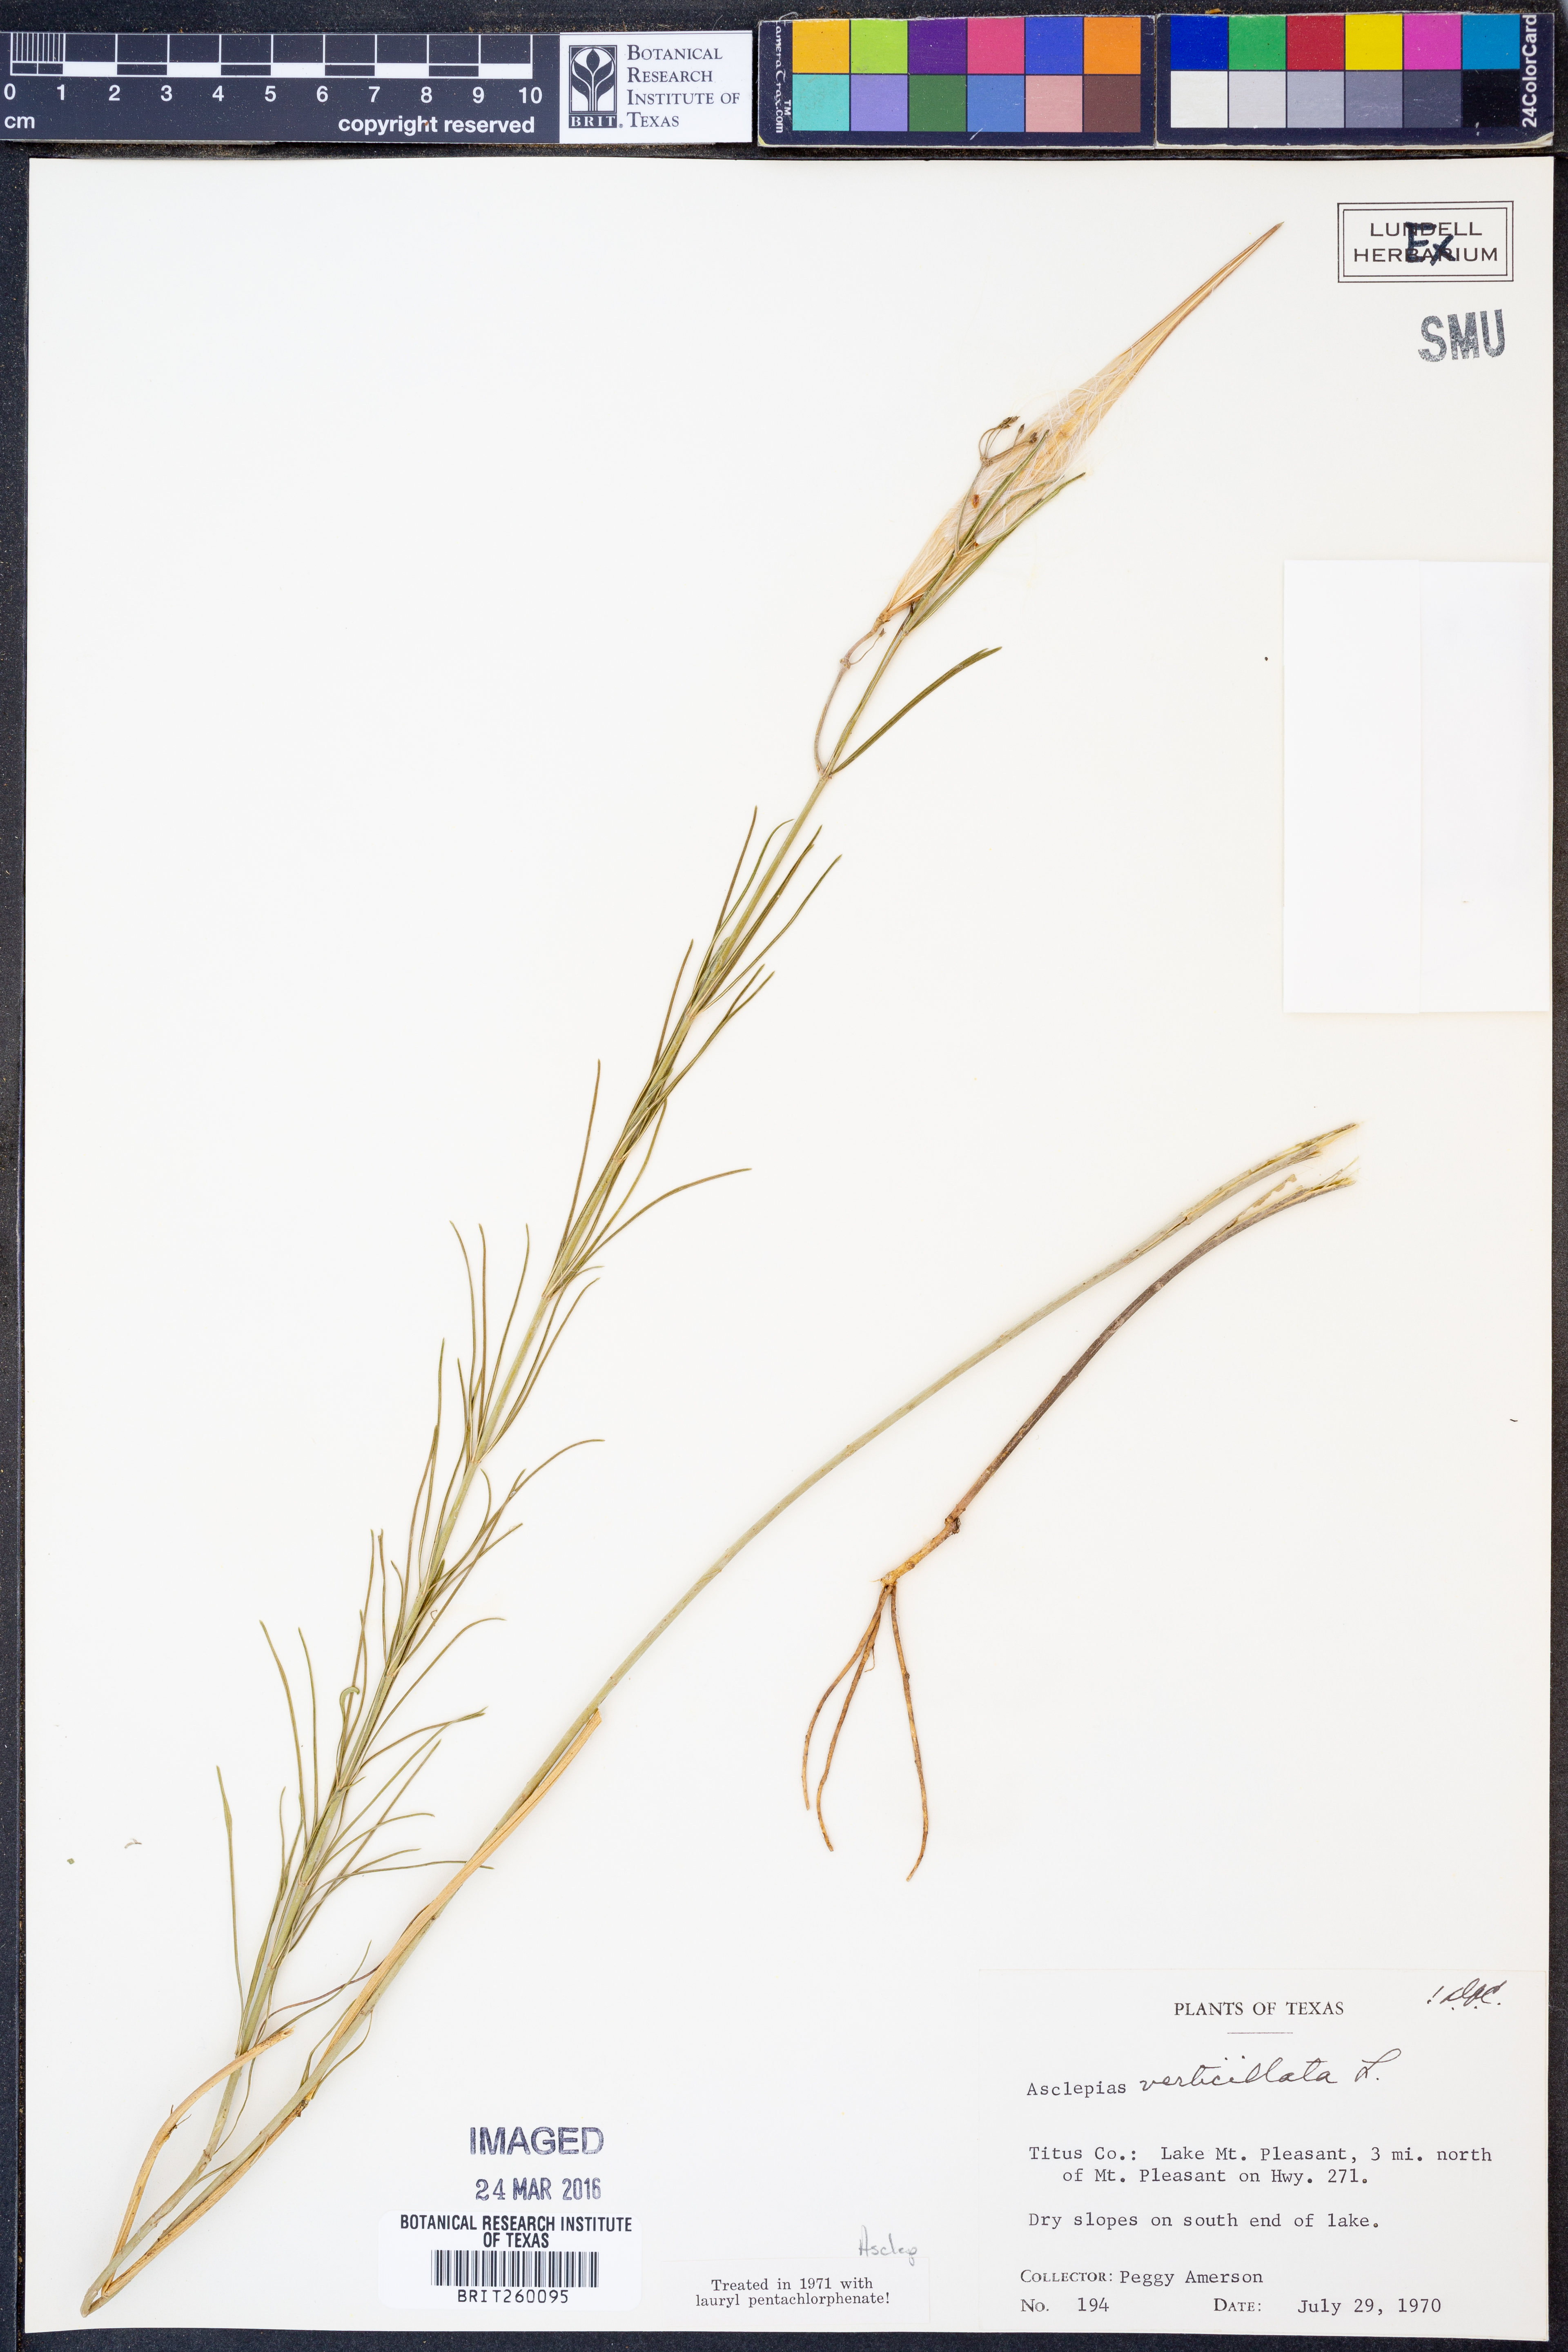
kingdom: Plantae
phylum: Tracheophyta
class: Magnoliopsida
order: Gentianales
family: Apocynaceae
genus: Asclepias
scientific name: Asclepias verticillata
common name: Eastern whorled milkweed
